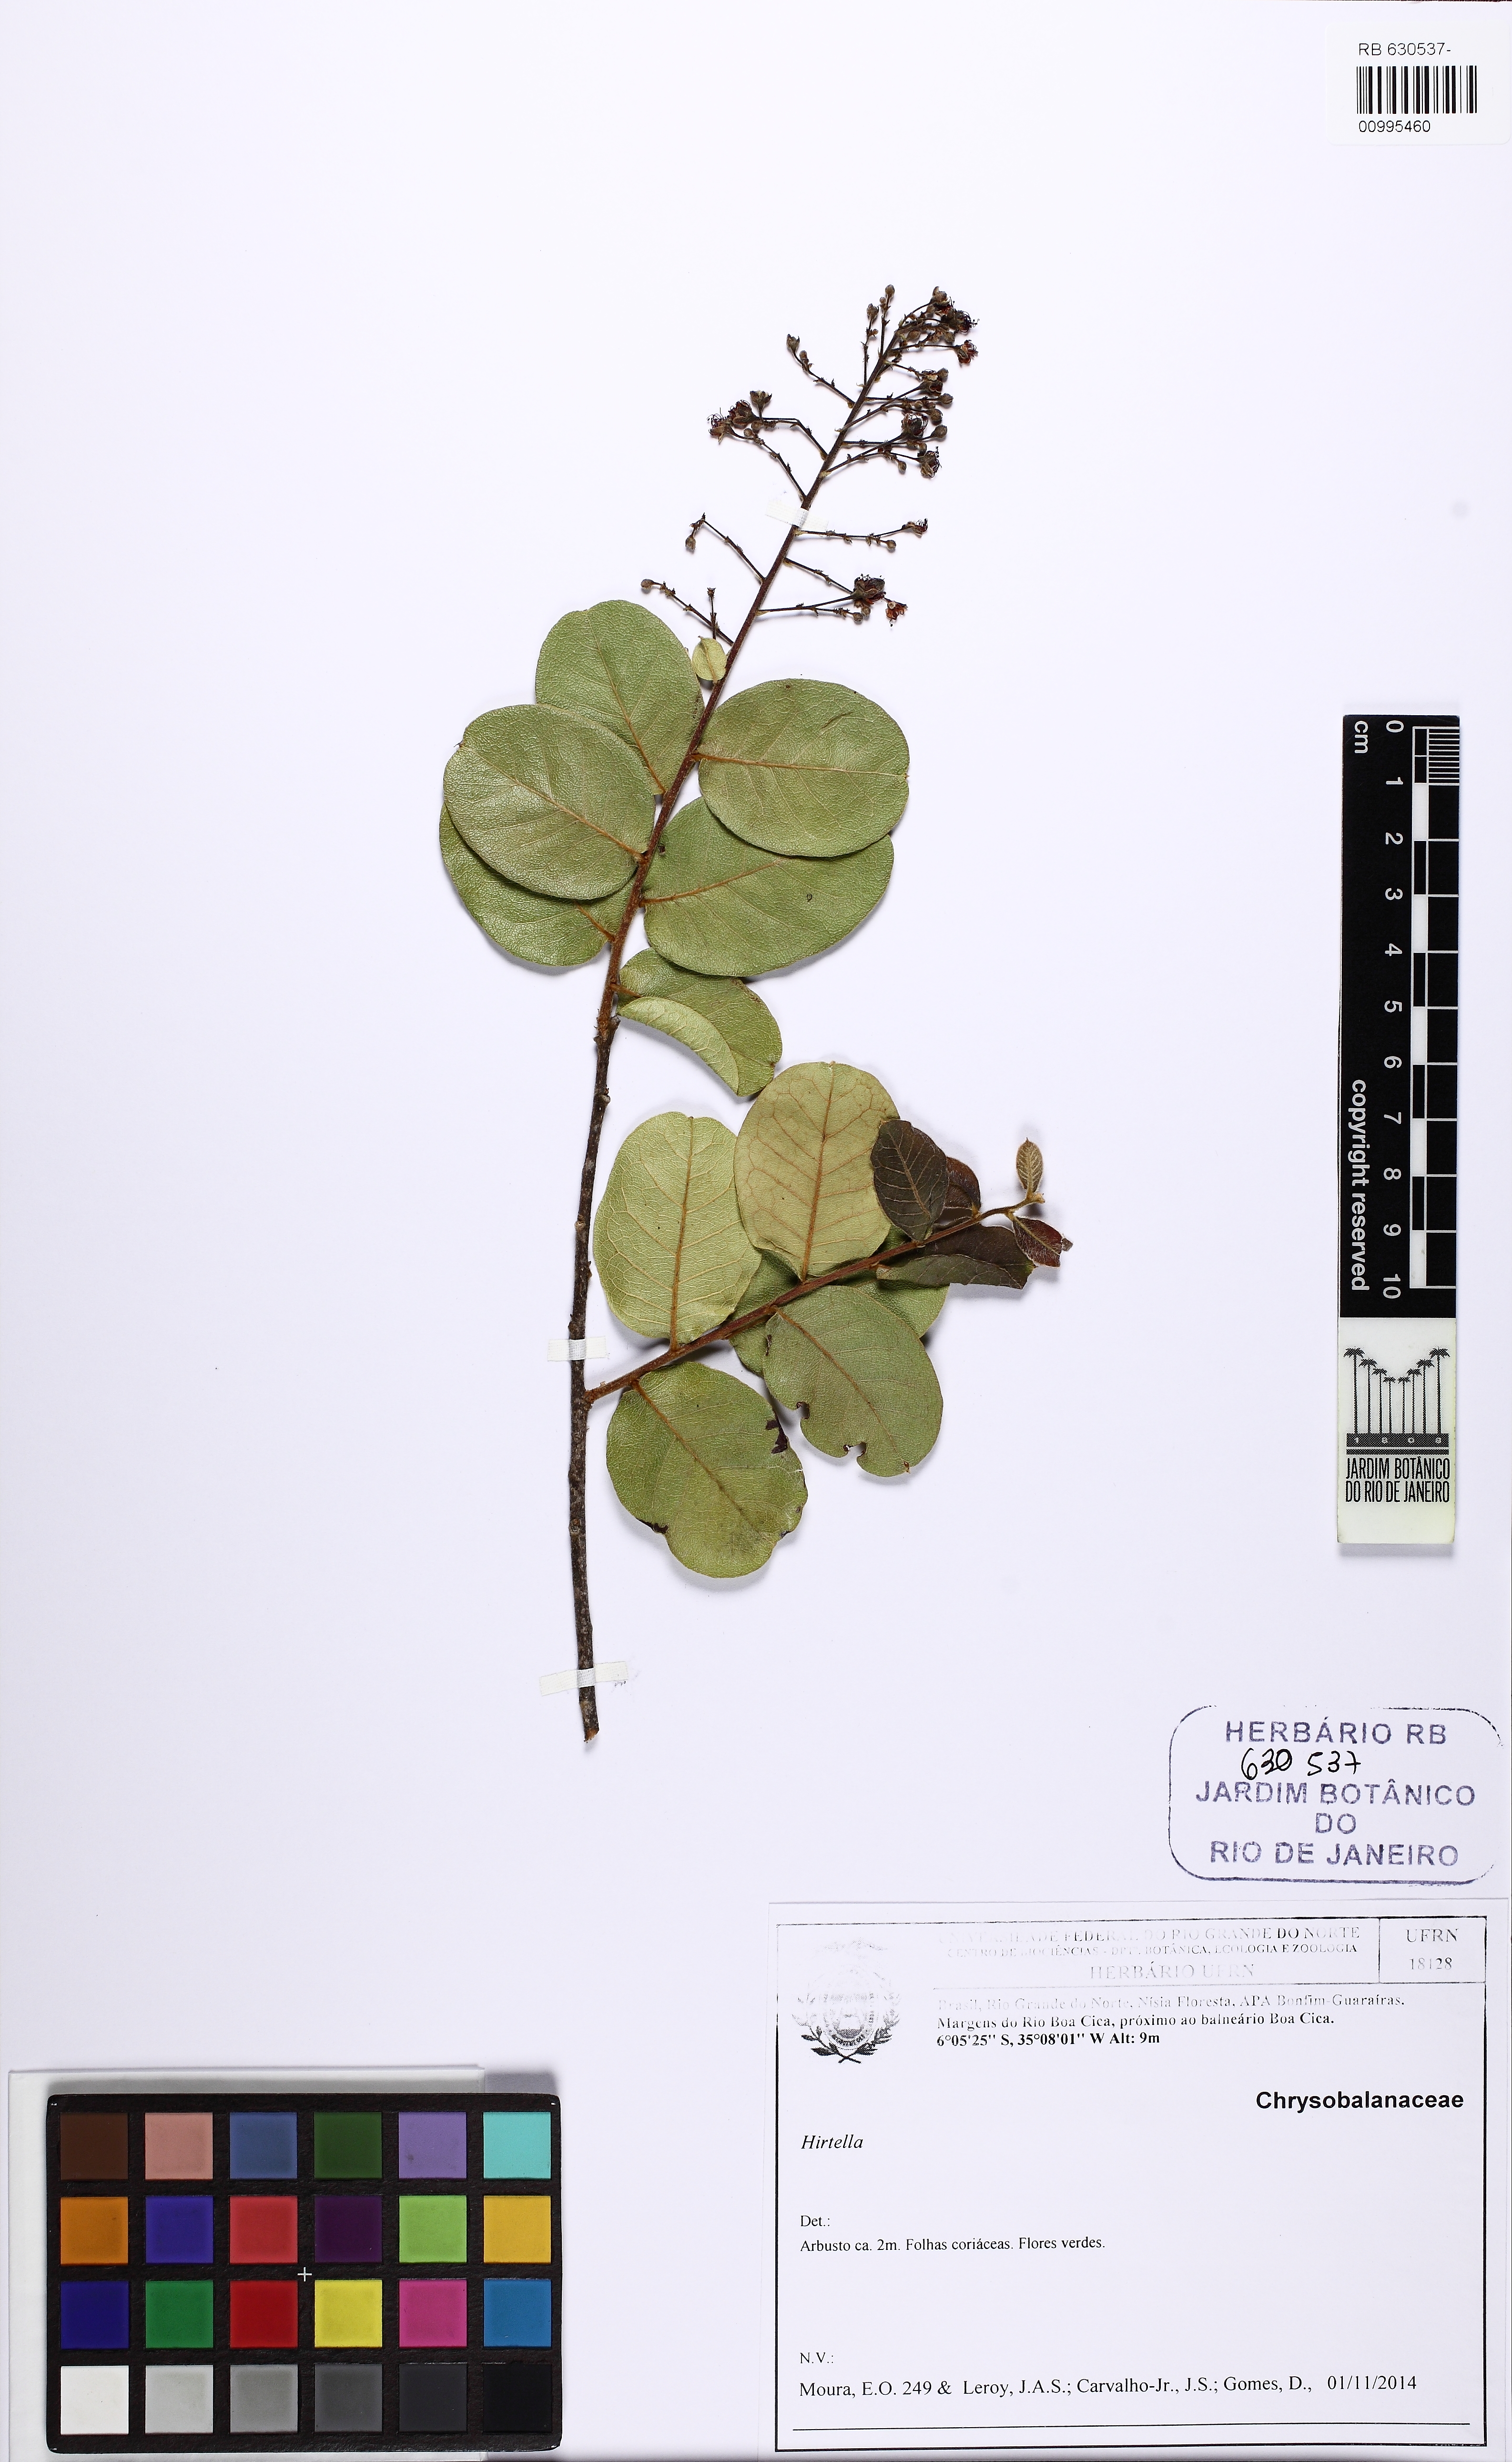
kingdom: Plantae
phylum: Tracheophyta
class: Magnoliopsida
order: Malpighiales
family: Chrysobalanaceae
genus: Hirtella
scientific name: Hirtella ciliata
